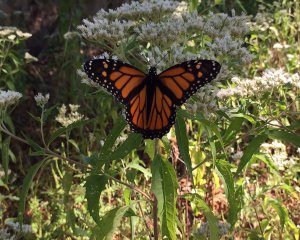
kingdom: Animalia
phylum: Arthropoda
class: Insecta
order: Lepidoptera
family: Nymphalidae
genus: Danaus
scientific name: Danaus plexippus
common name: Monarch
